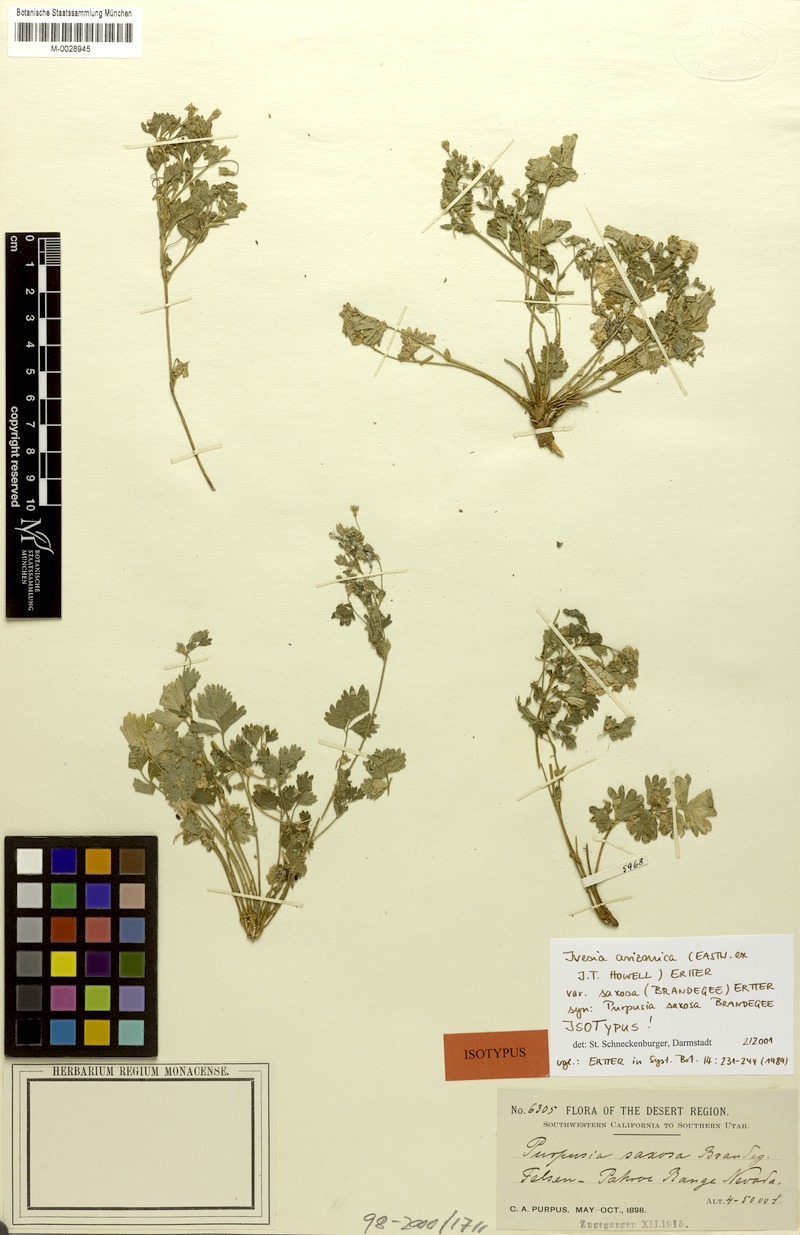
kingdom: Plantae
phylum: Tracheophyta
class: Magnoliopsida
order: Rosales
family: Rosaceae
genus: Potentilla
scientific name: Potentilla osterhoutii
